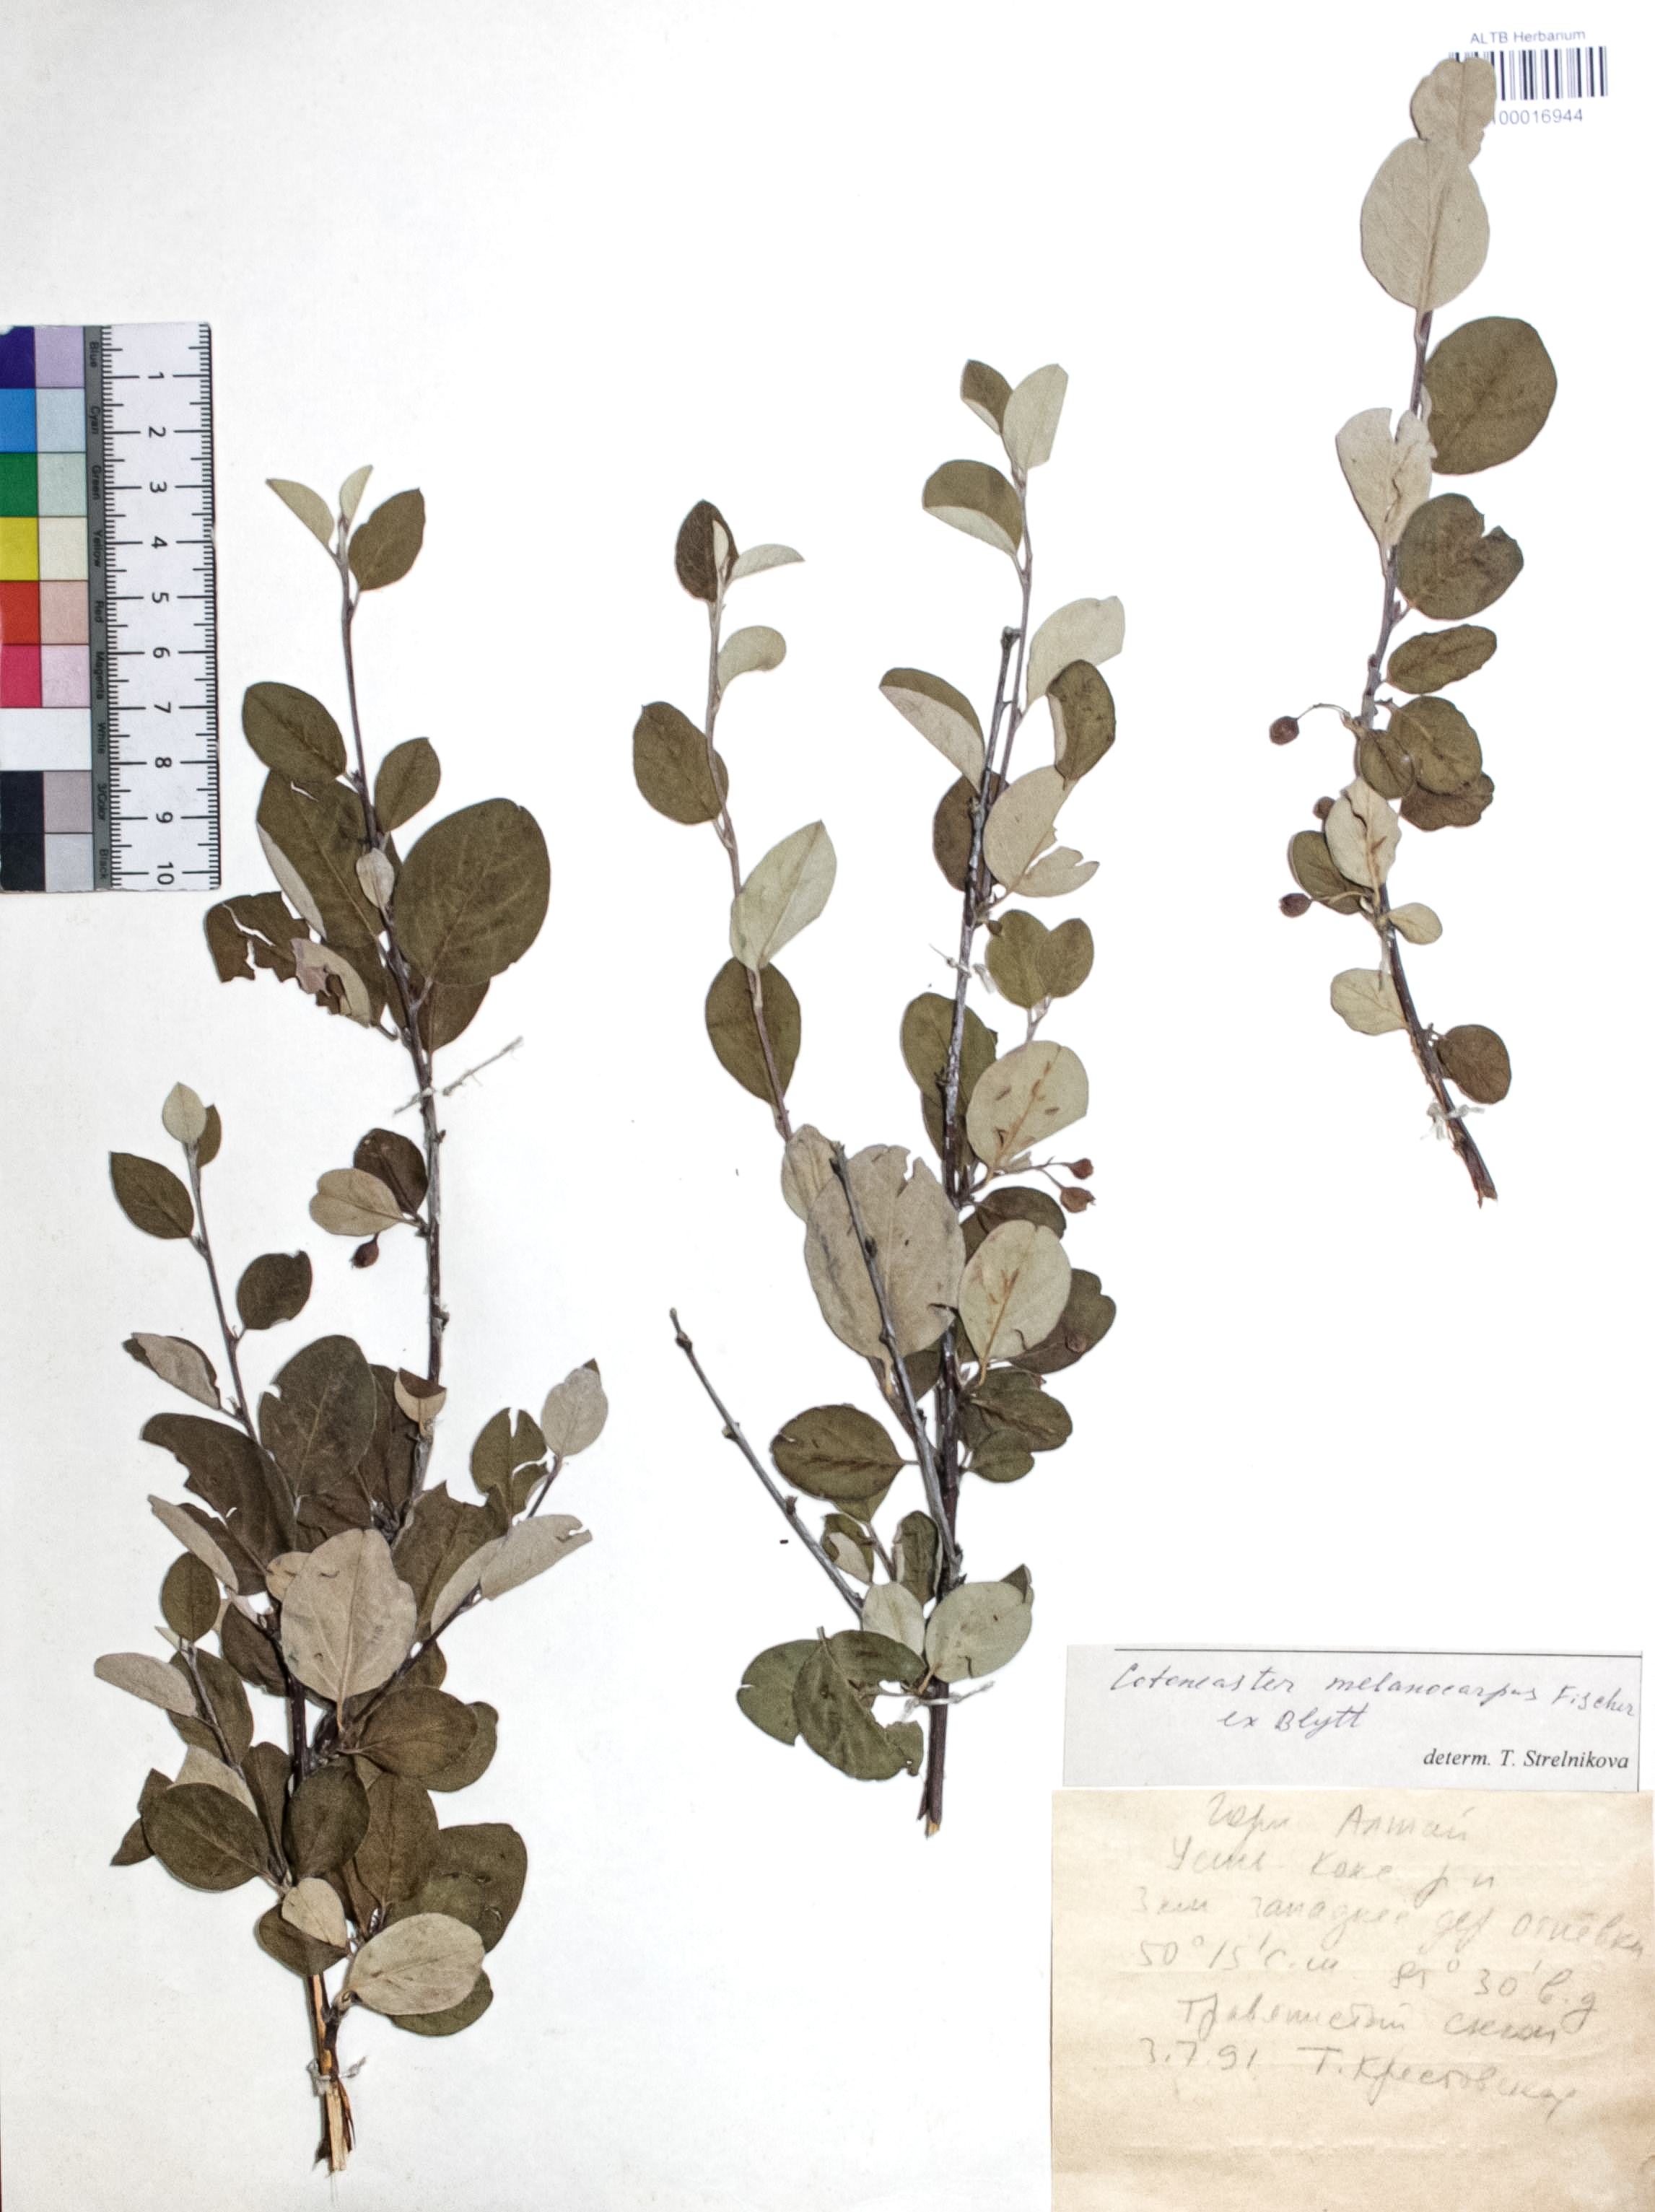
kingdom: Plantae
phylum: Tracheophyta
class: Magnoliopsida
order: Rosales
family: Rosaceae
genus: Cotoneaster
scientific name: Cotoneaster niger
